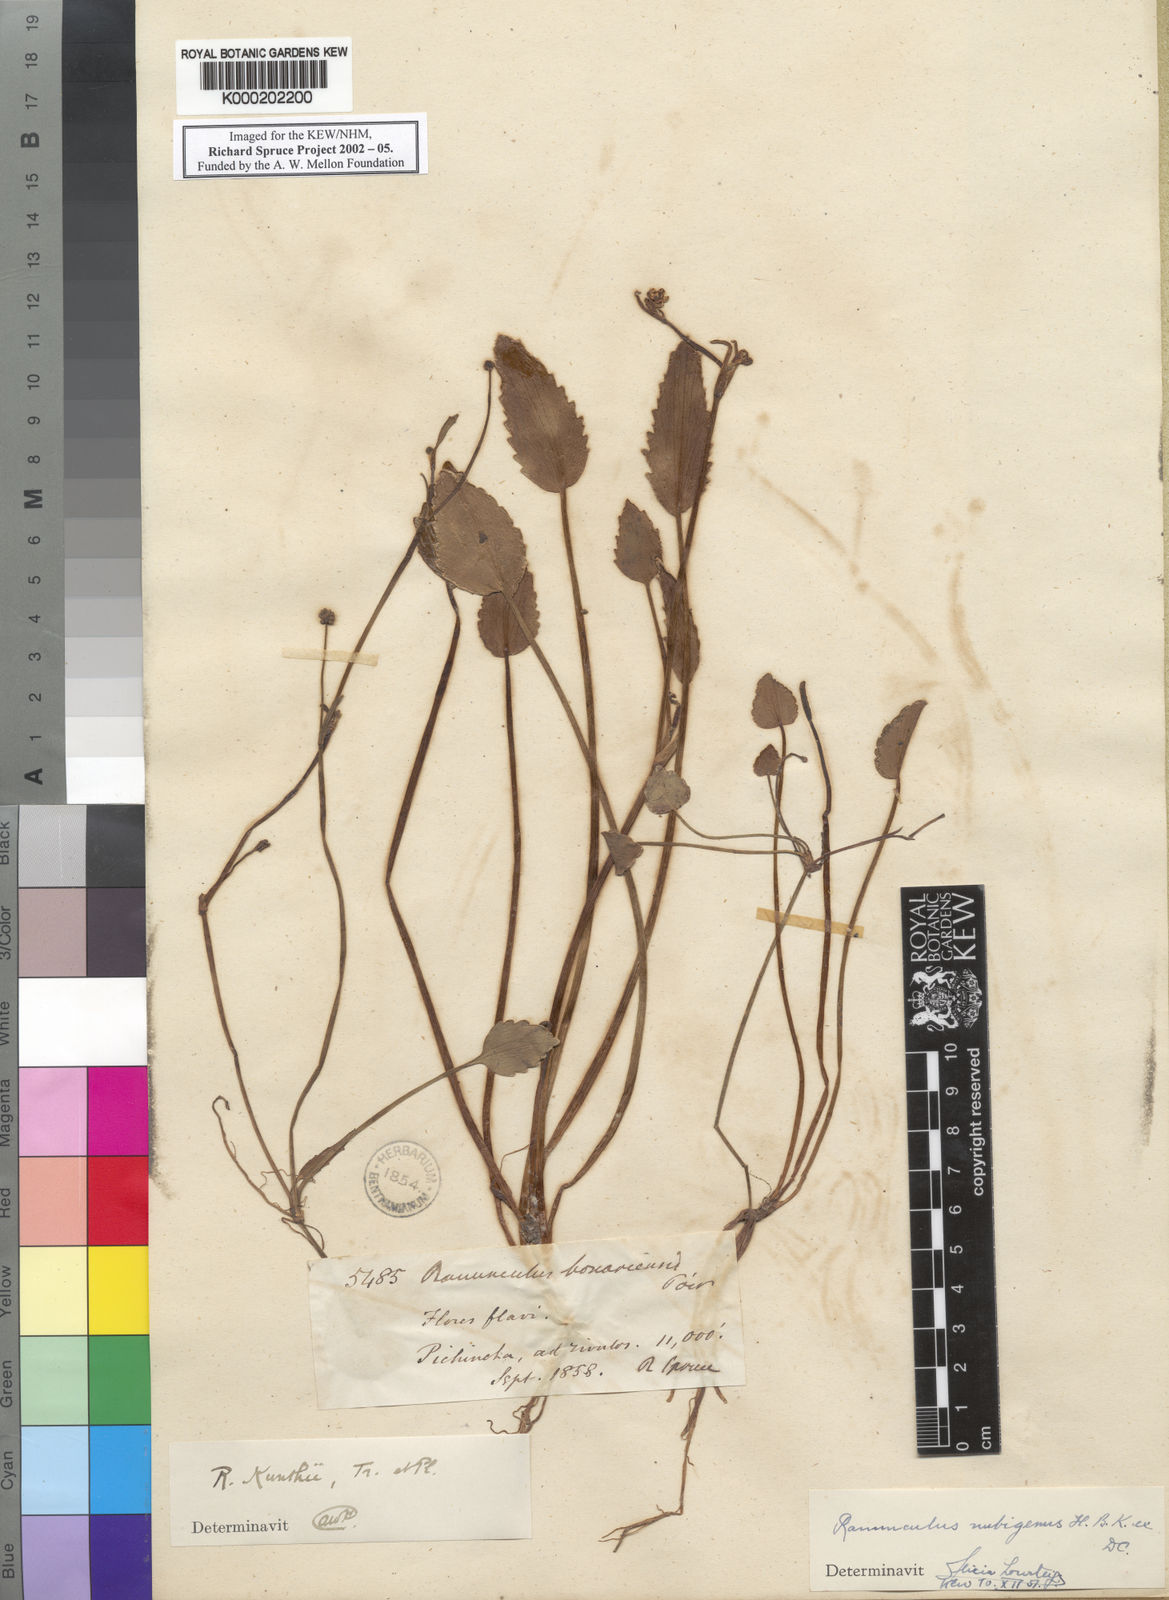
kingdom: Plantae
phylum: Tracheophyta
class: Magnoliopsida
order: Ranunculales
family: Ranunculaceae
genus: Ranunculus
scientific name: Ranunculus nubigenus
